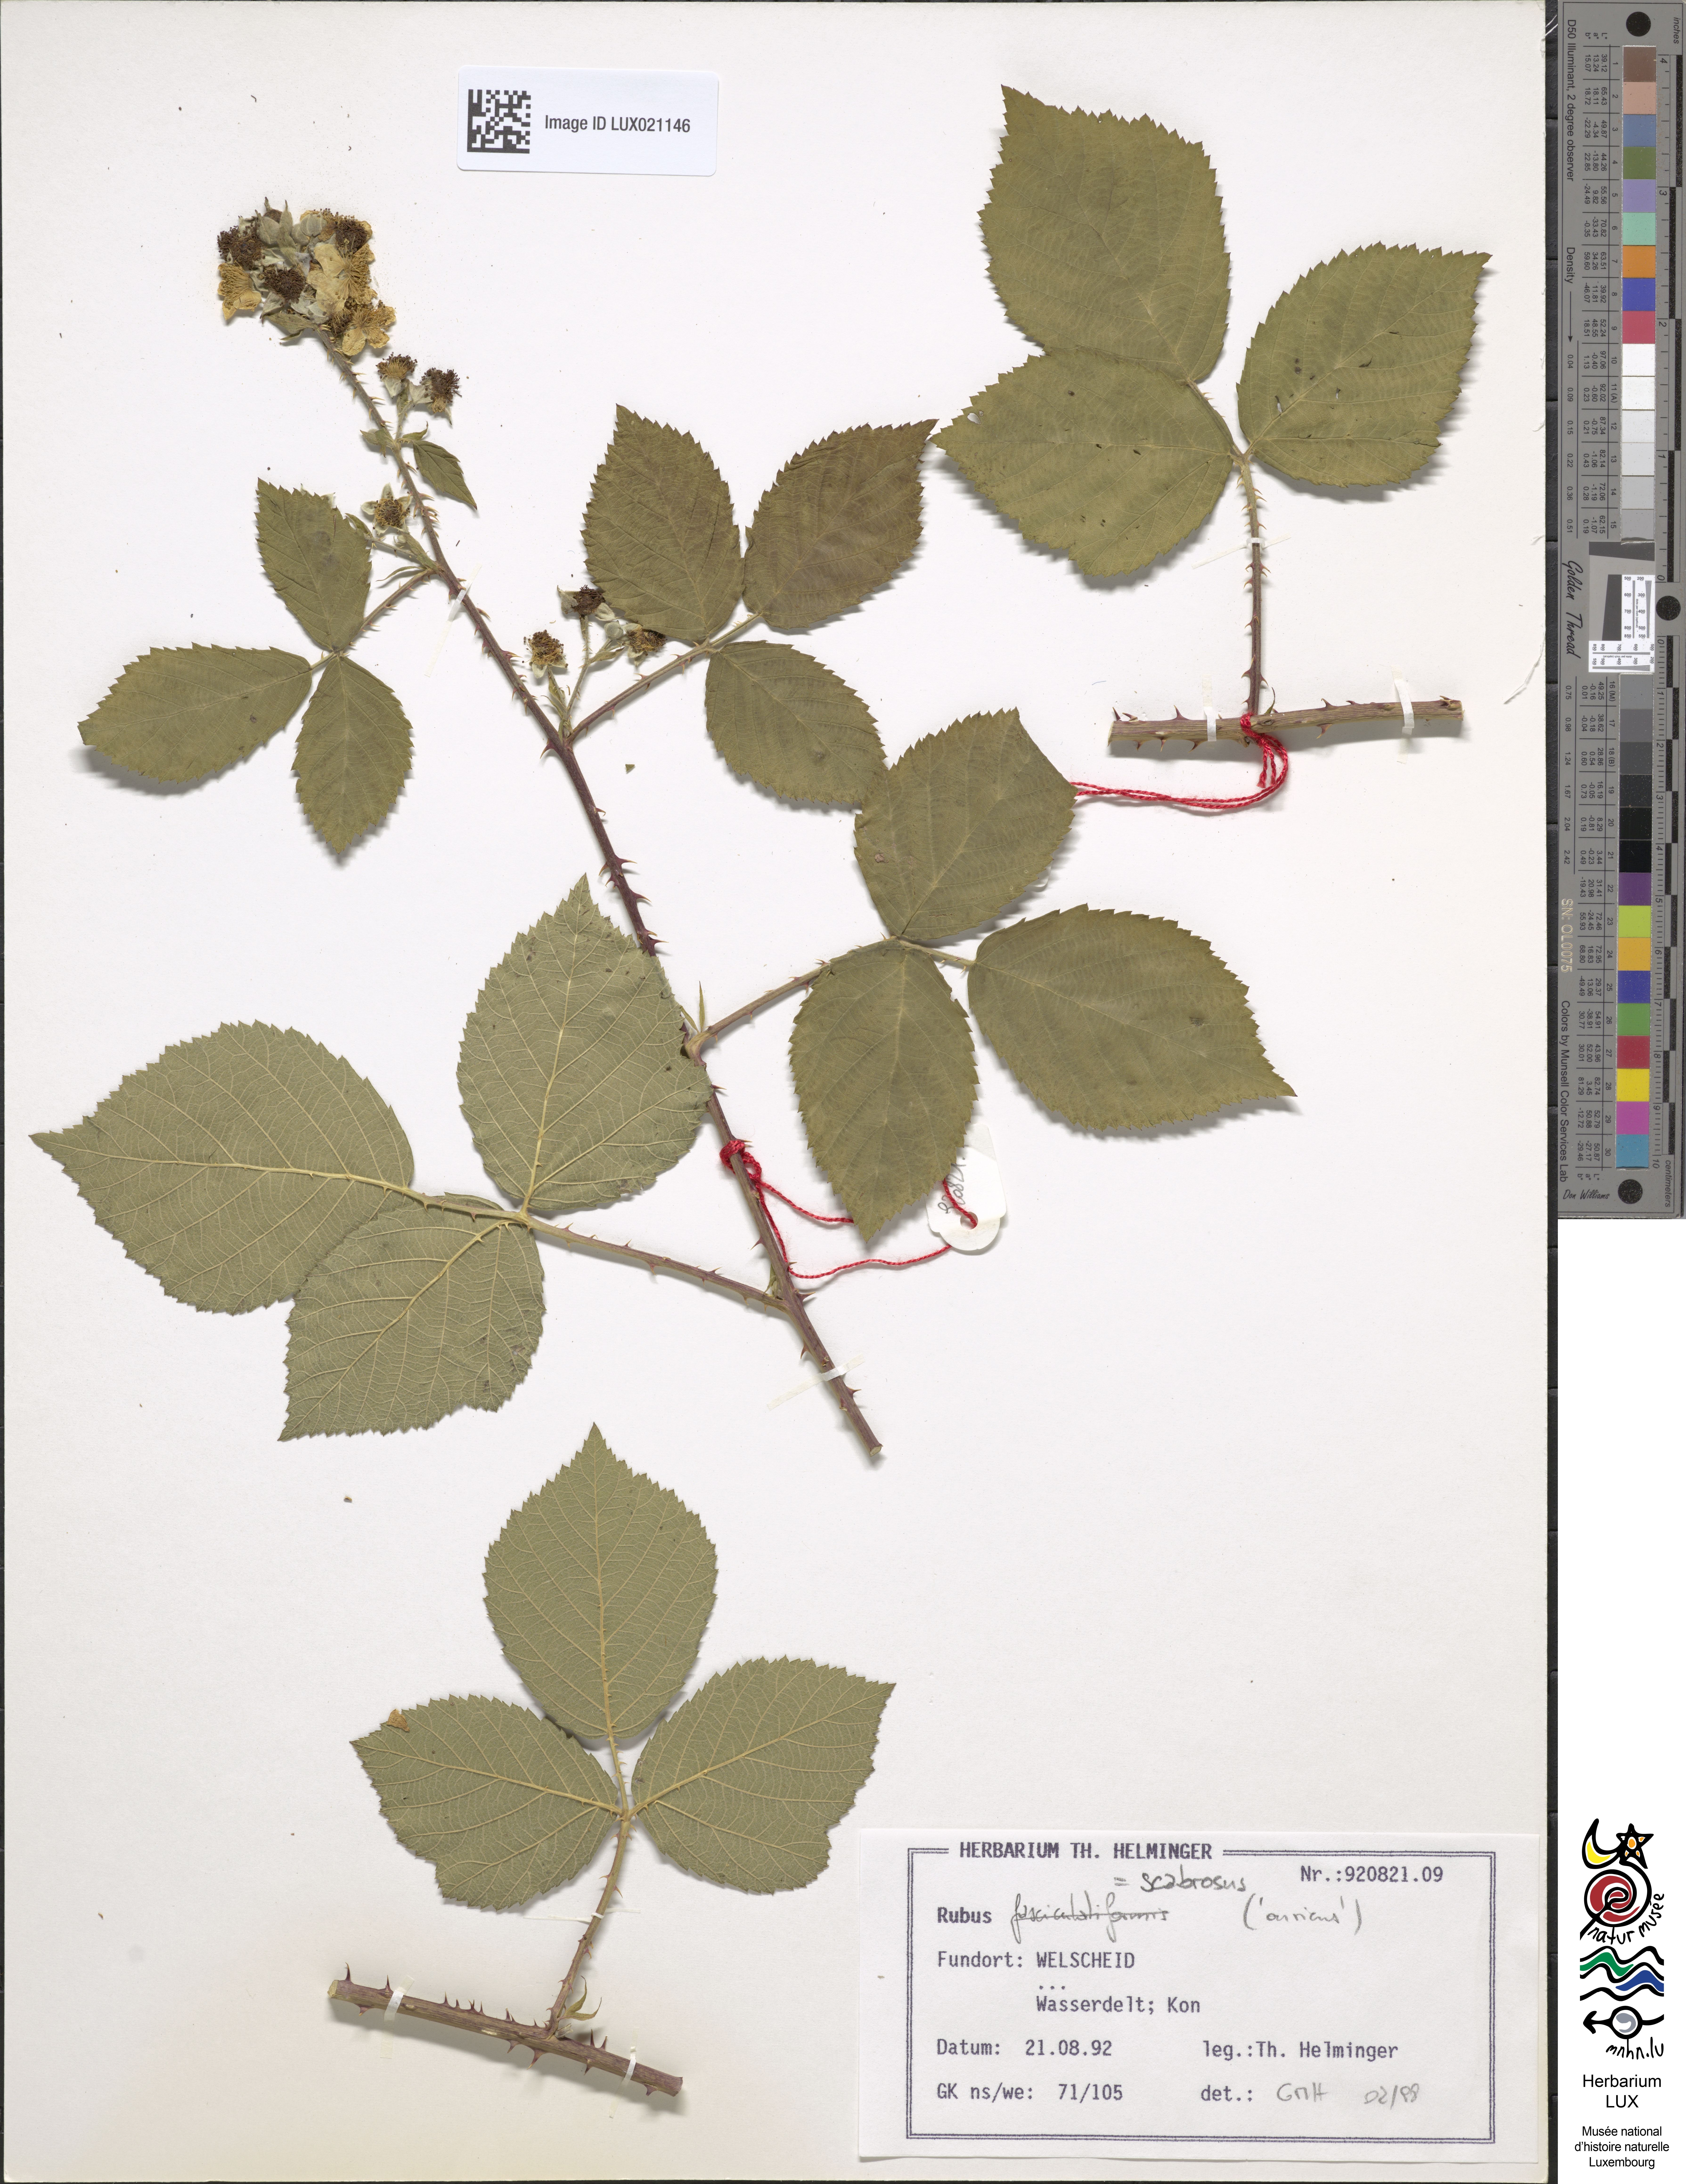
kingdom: Plantae
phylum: Tracheophyta
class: Magnoliopsida
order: Rosales
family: Rosaceae
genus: Rubus
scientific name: Rubus scabrosus
